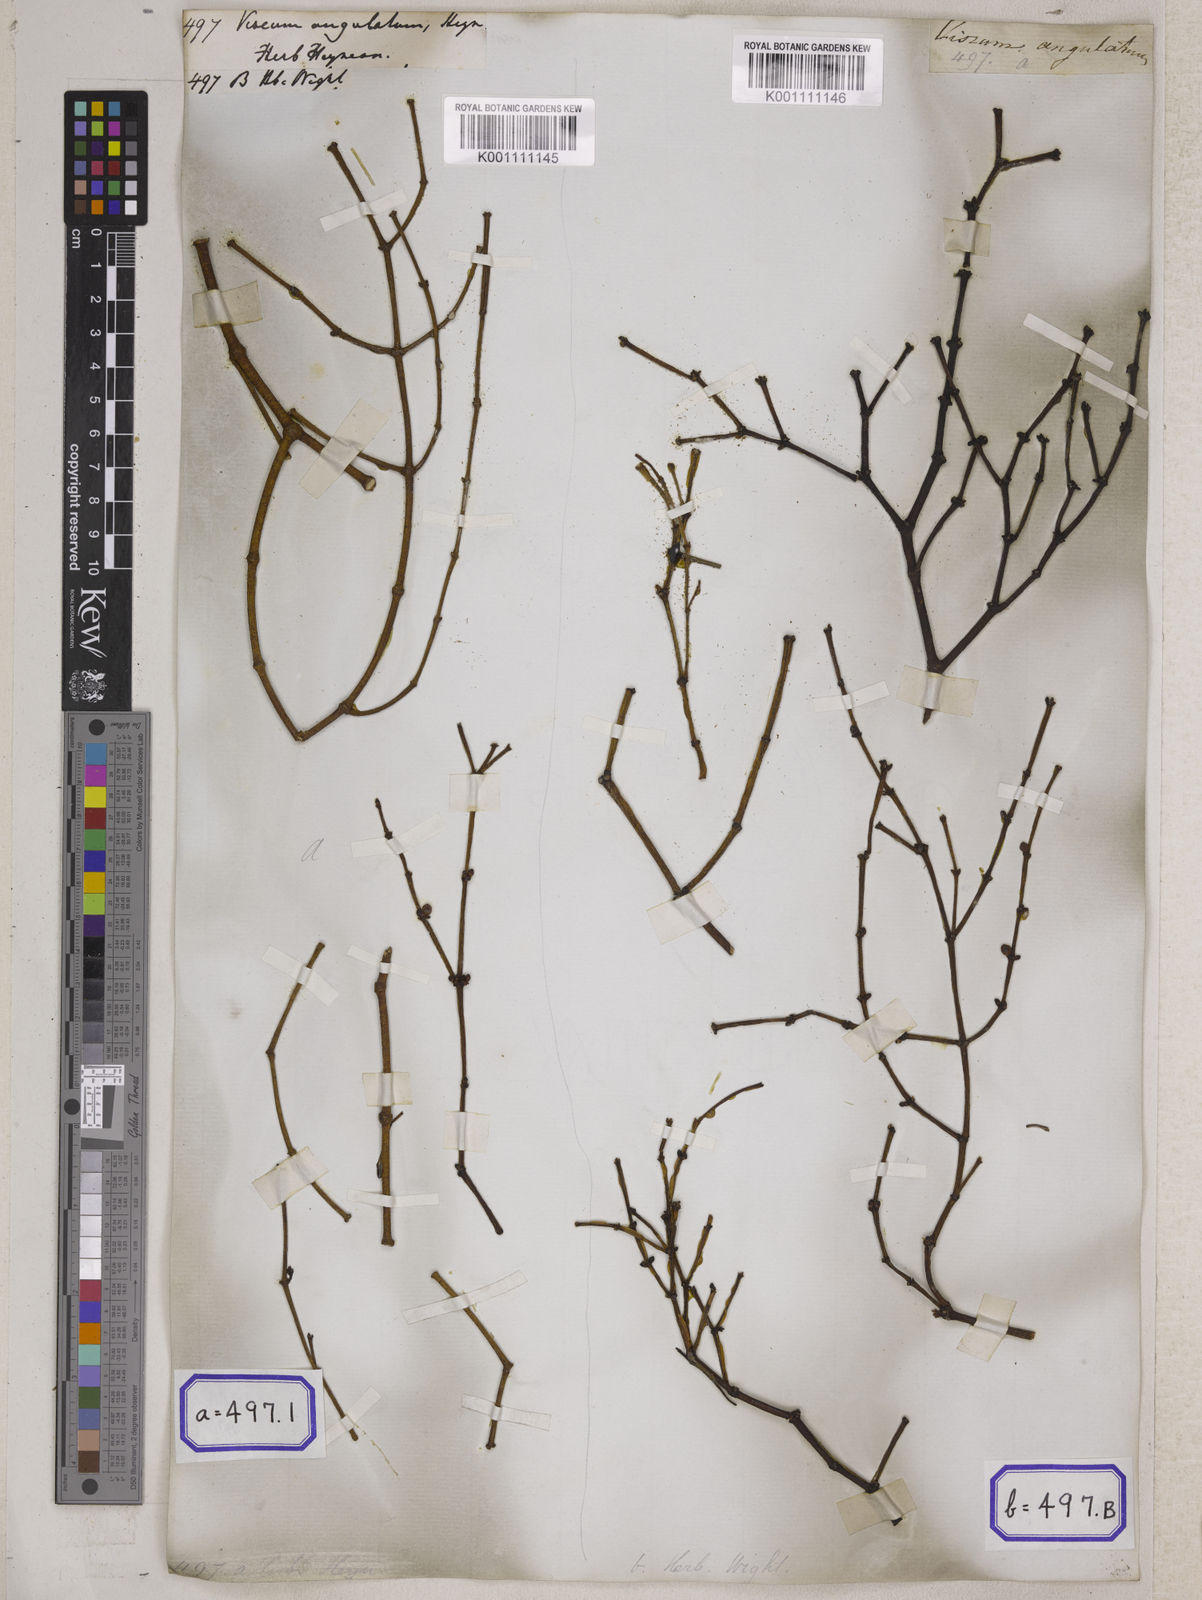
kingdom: Plantae
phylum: Tracheophyta
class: Magnoliopsida
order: Santalales
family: Viscaceae
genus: Viscum
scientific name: Viscum
